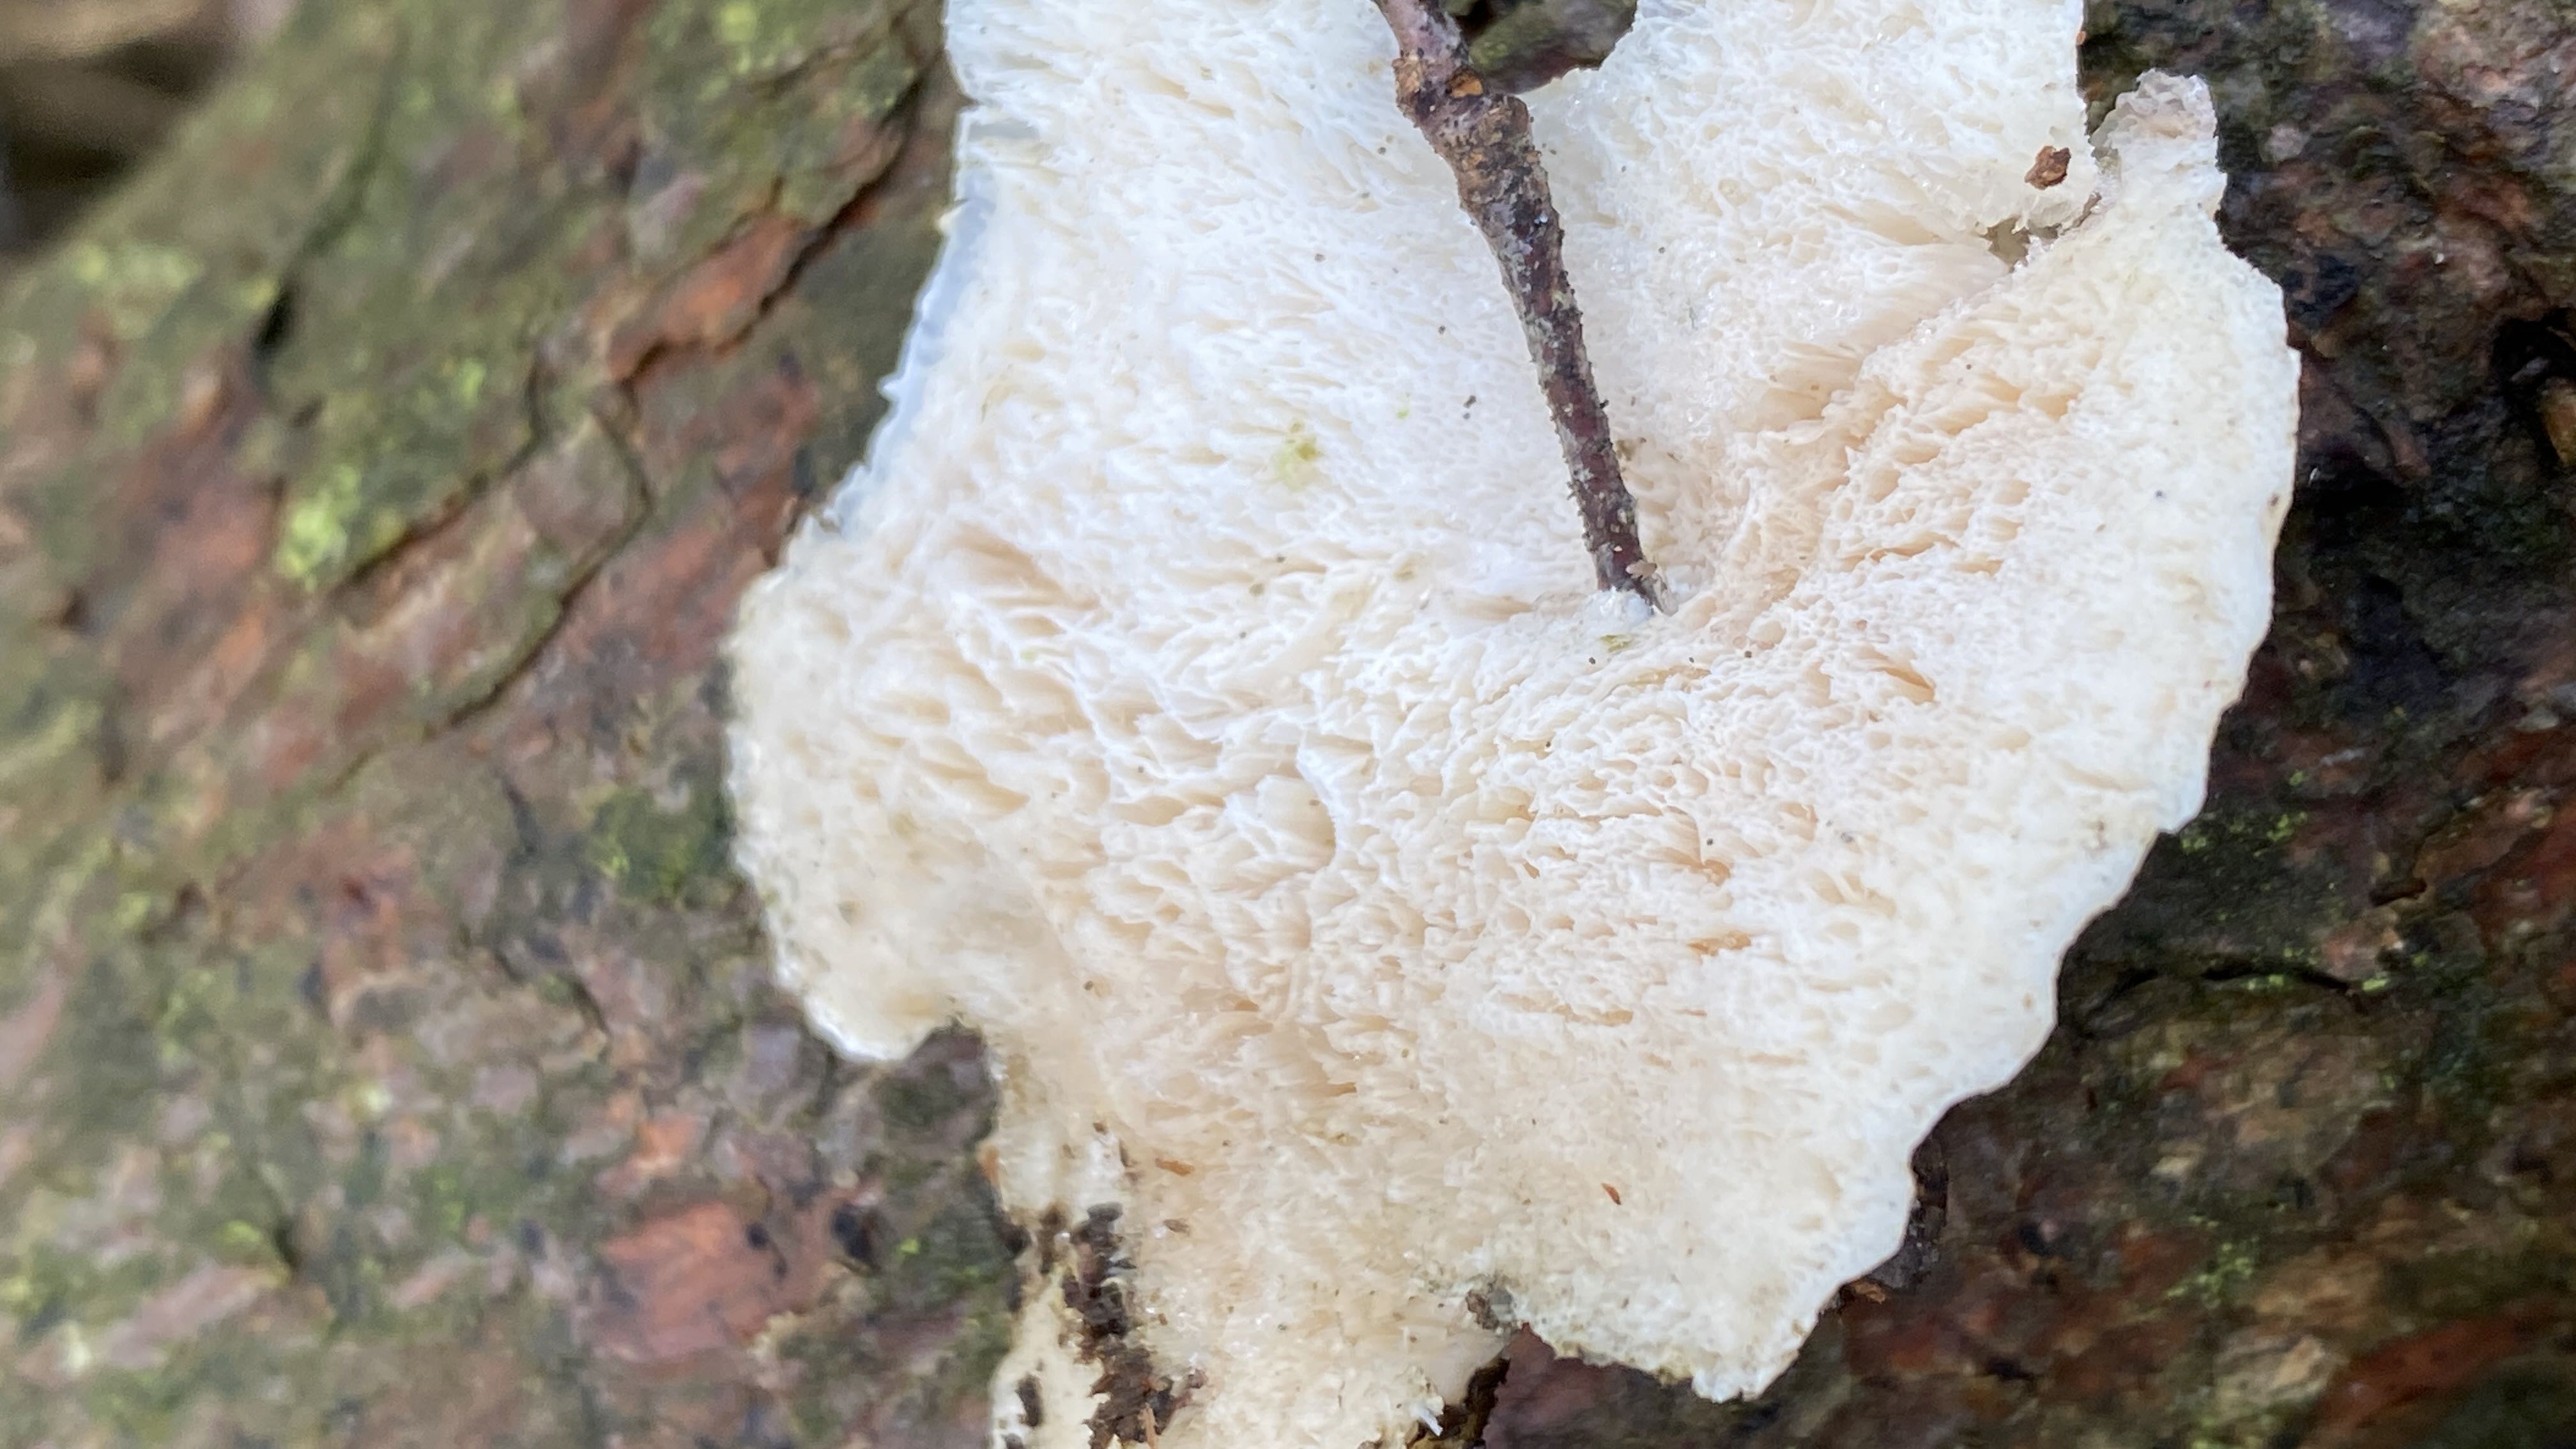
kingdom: Fungi
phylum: Basidiomycota
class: Agaricomycetes
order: Polyporales
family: Incrustoporiaceae
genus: Tyromyces
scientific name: Tyromyces lacteus
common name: mælkehvid kødporesvamp
